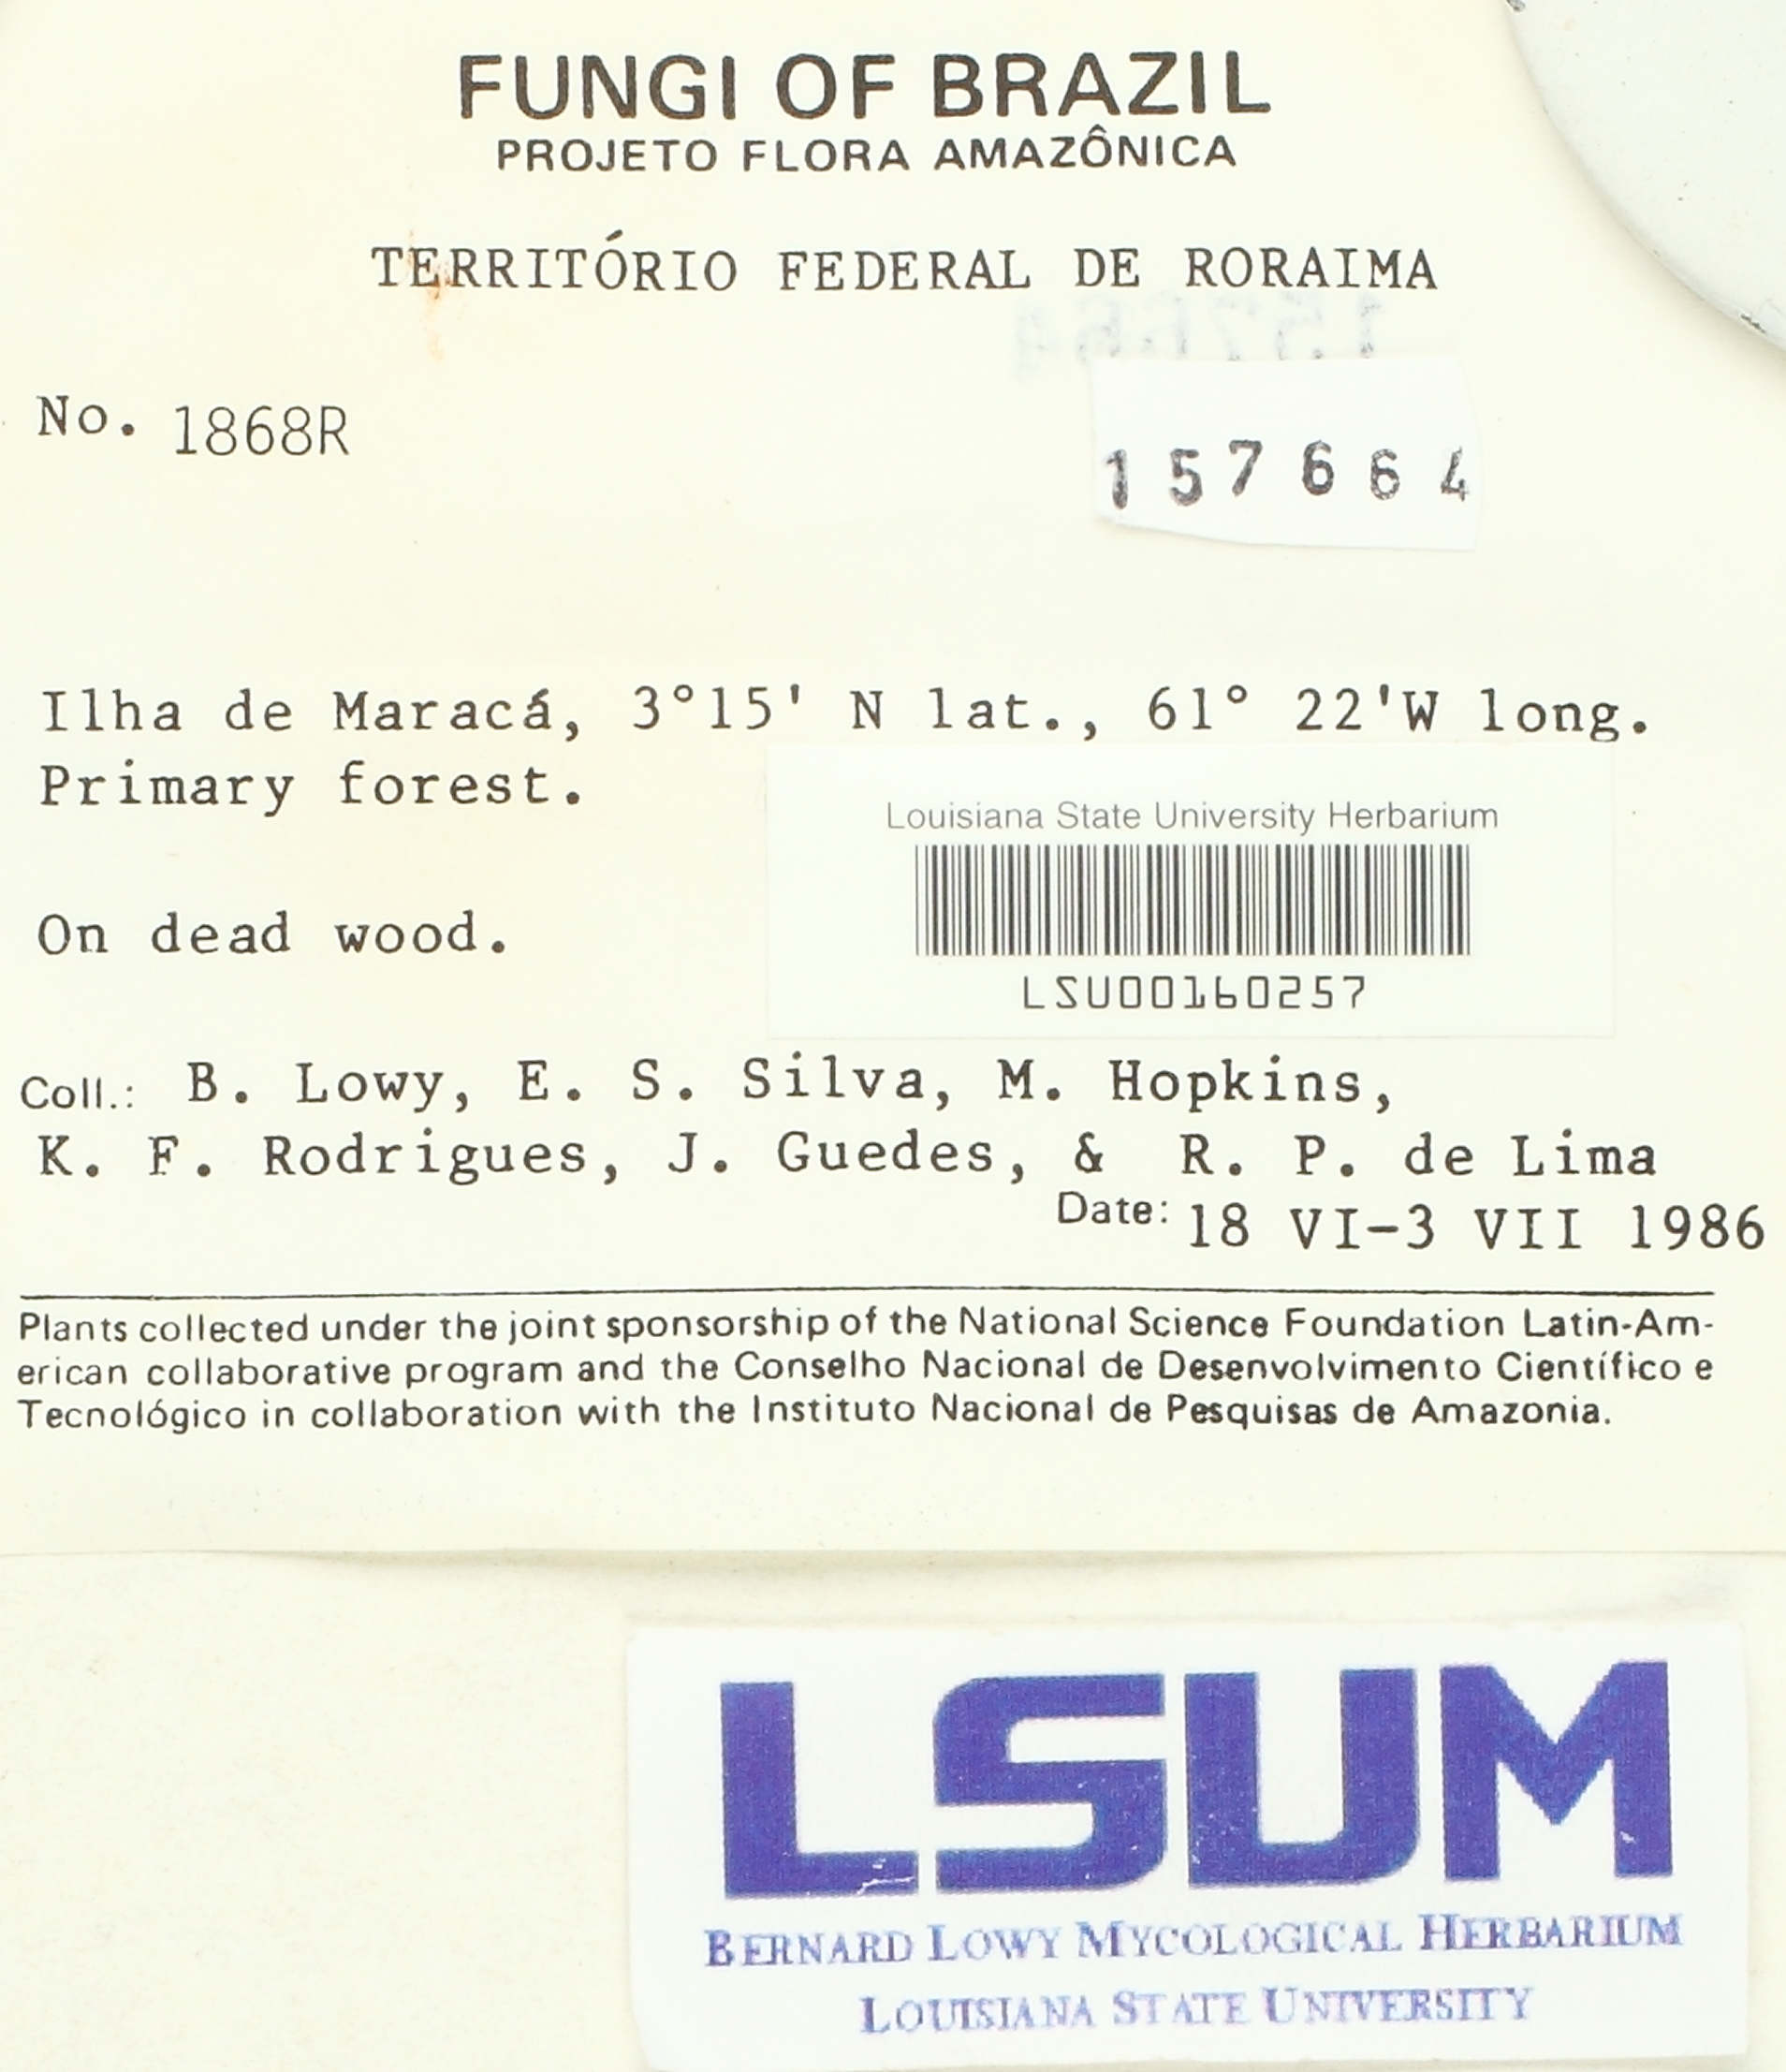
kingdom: Fungi
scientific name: Fungi
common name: Fungi
